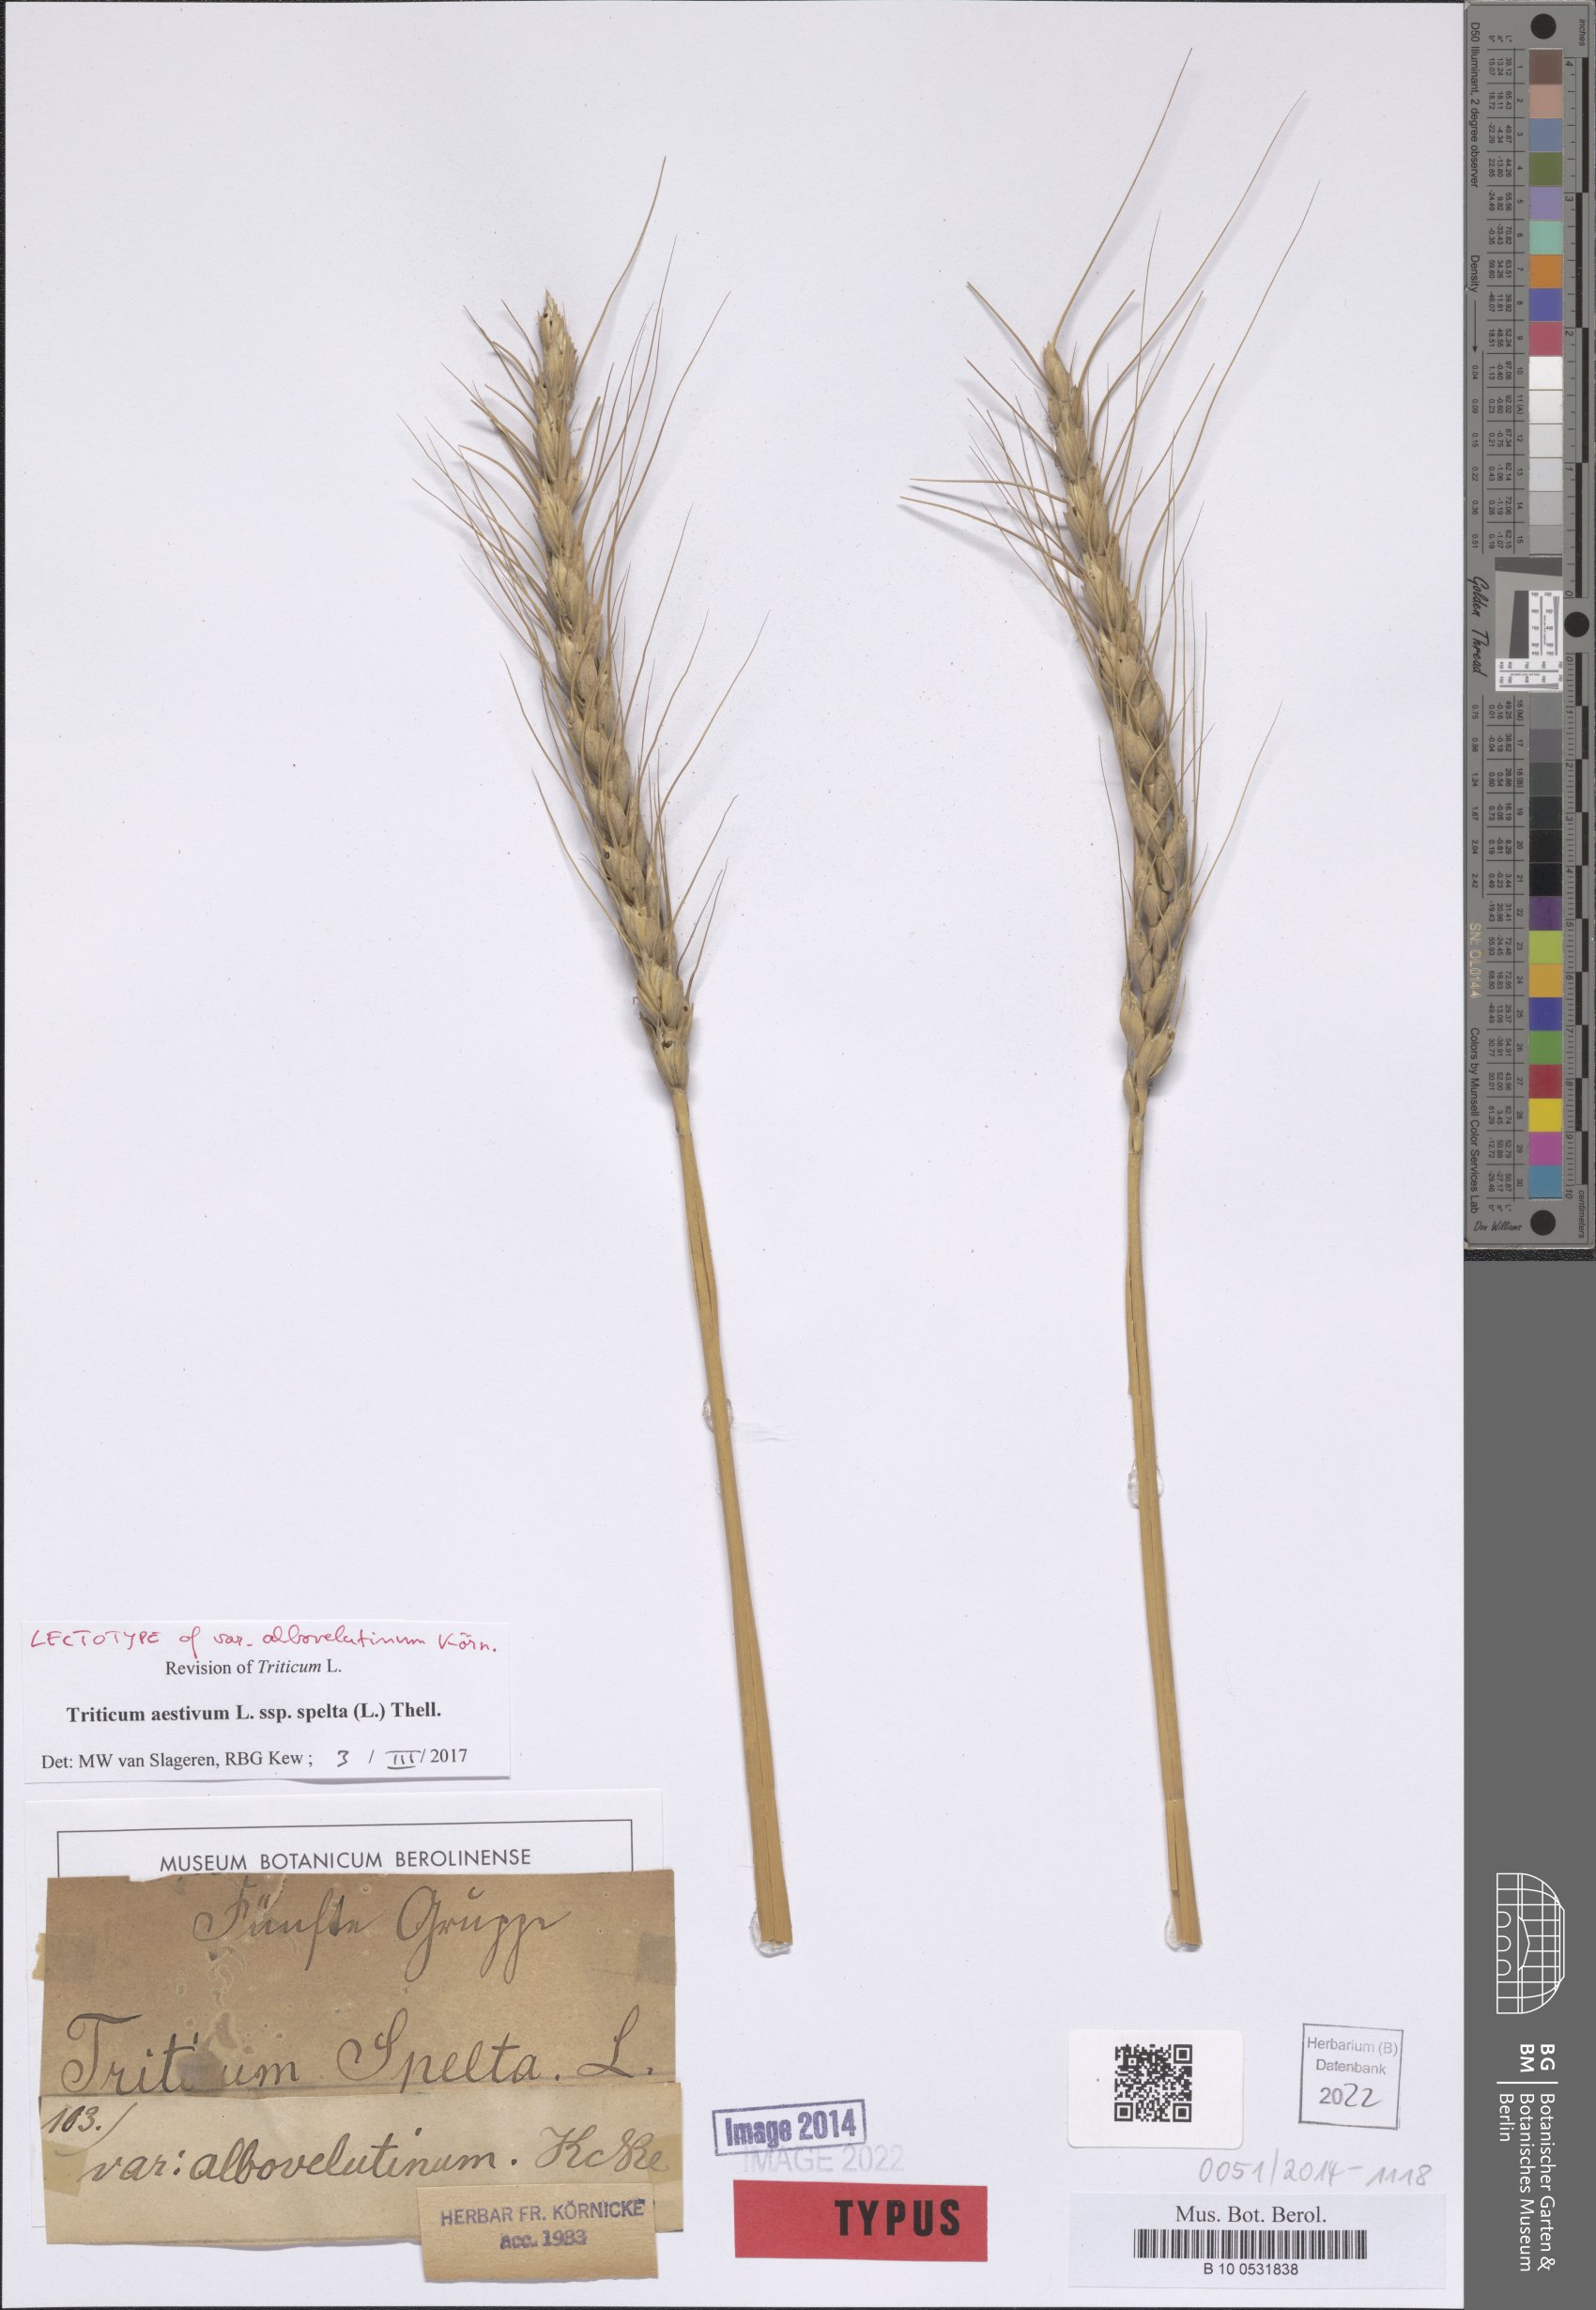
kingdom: Plantae
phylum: Tracheophyta
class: Liliopsida
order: Poales
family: Poaceae
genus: Triticum
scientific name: Triticum aestivum
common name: Common wheat
